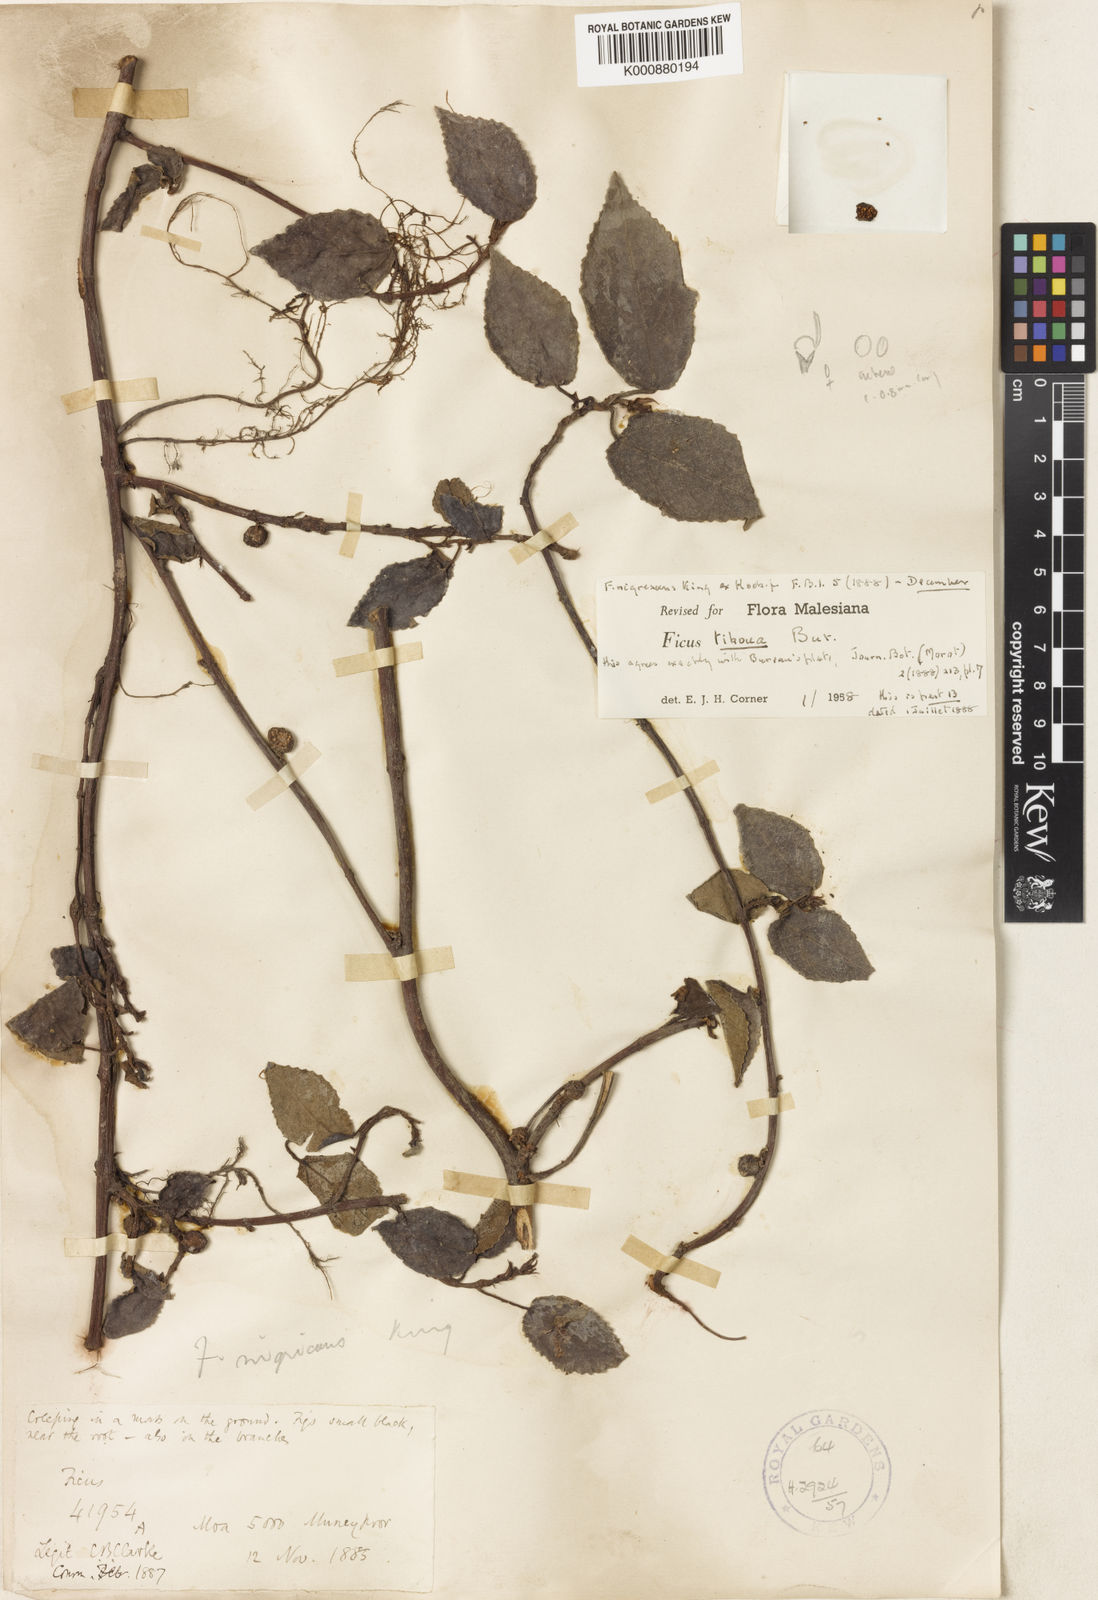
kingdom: Plantae
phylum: Tracheophyta
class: Magnoliopsida
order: Rosales
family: Moraceae
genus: Ficus
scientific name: Ficus tikoua
